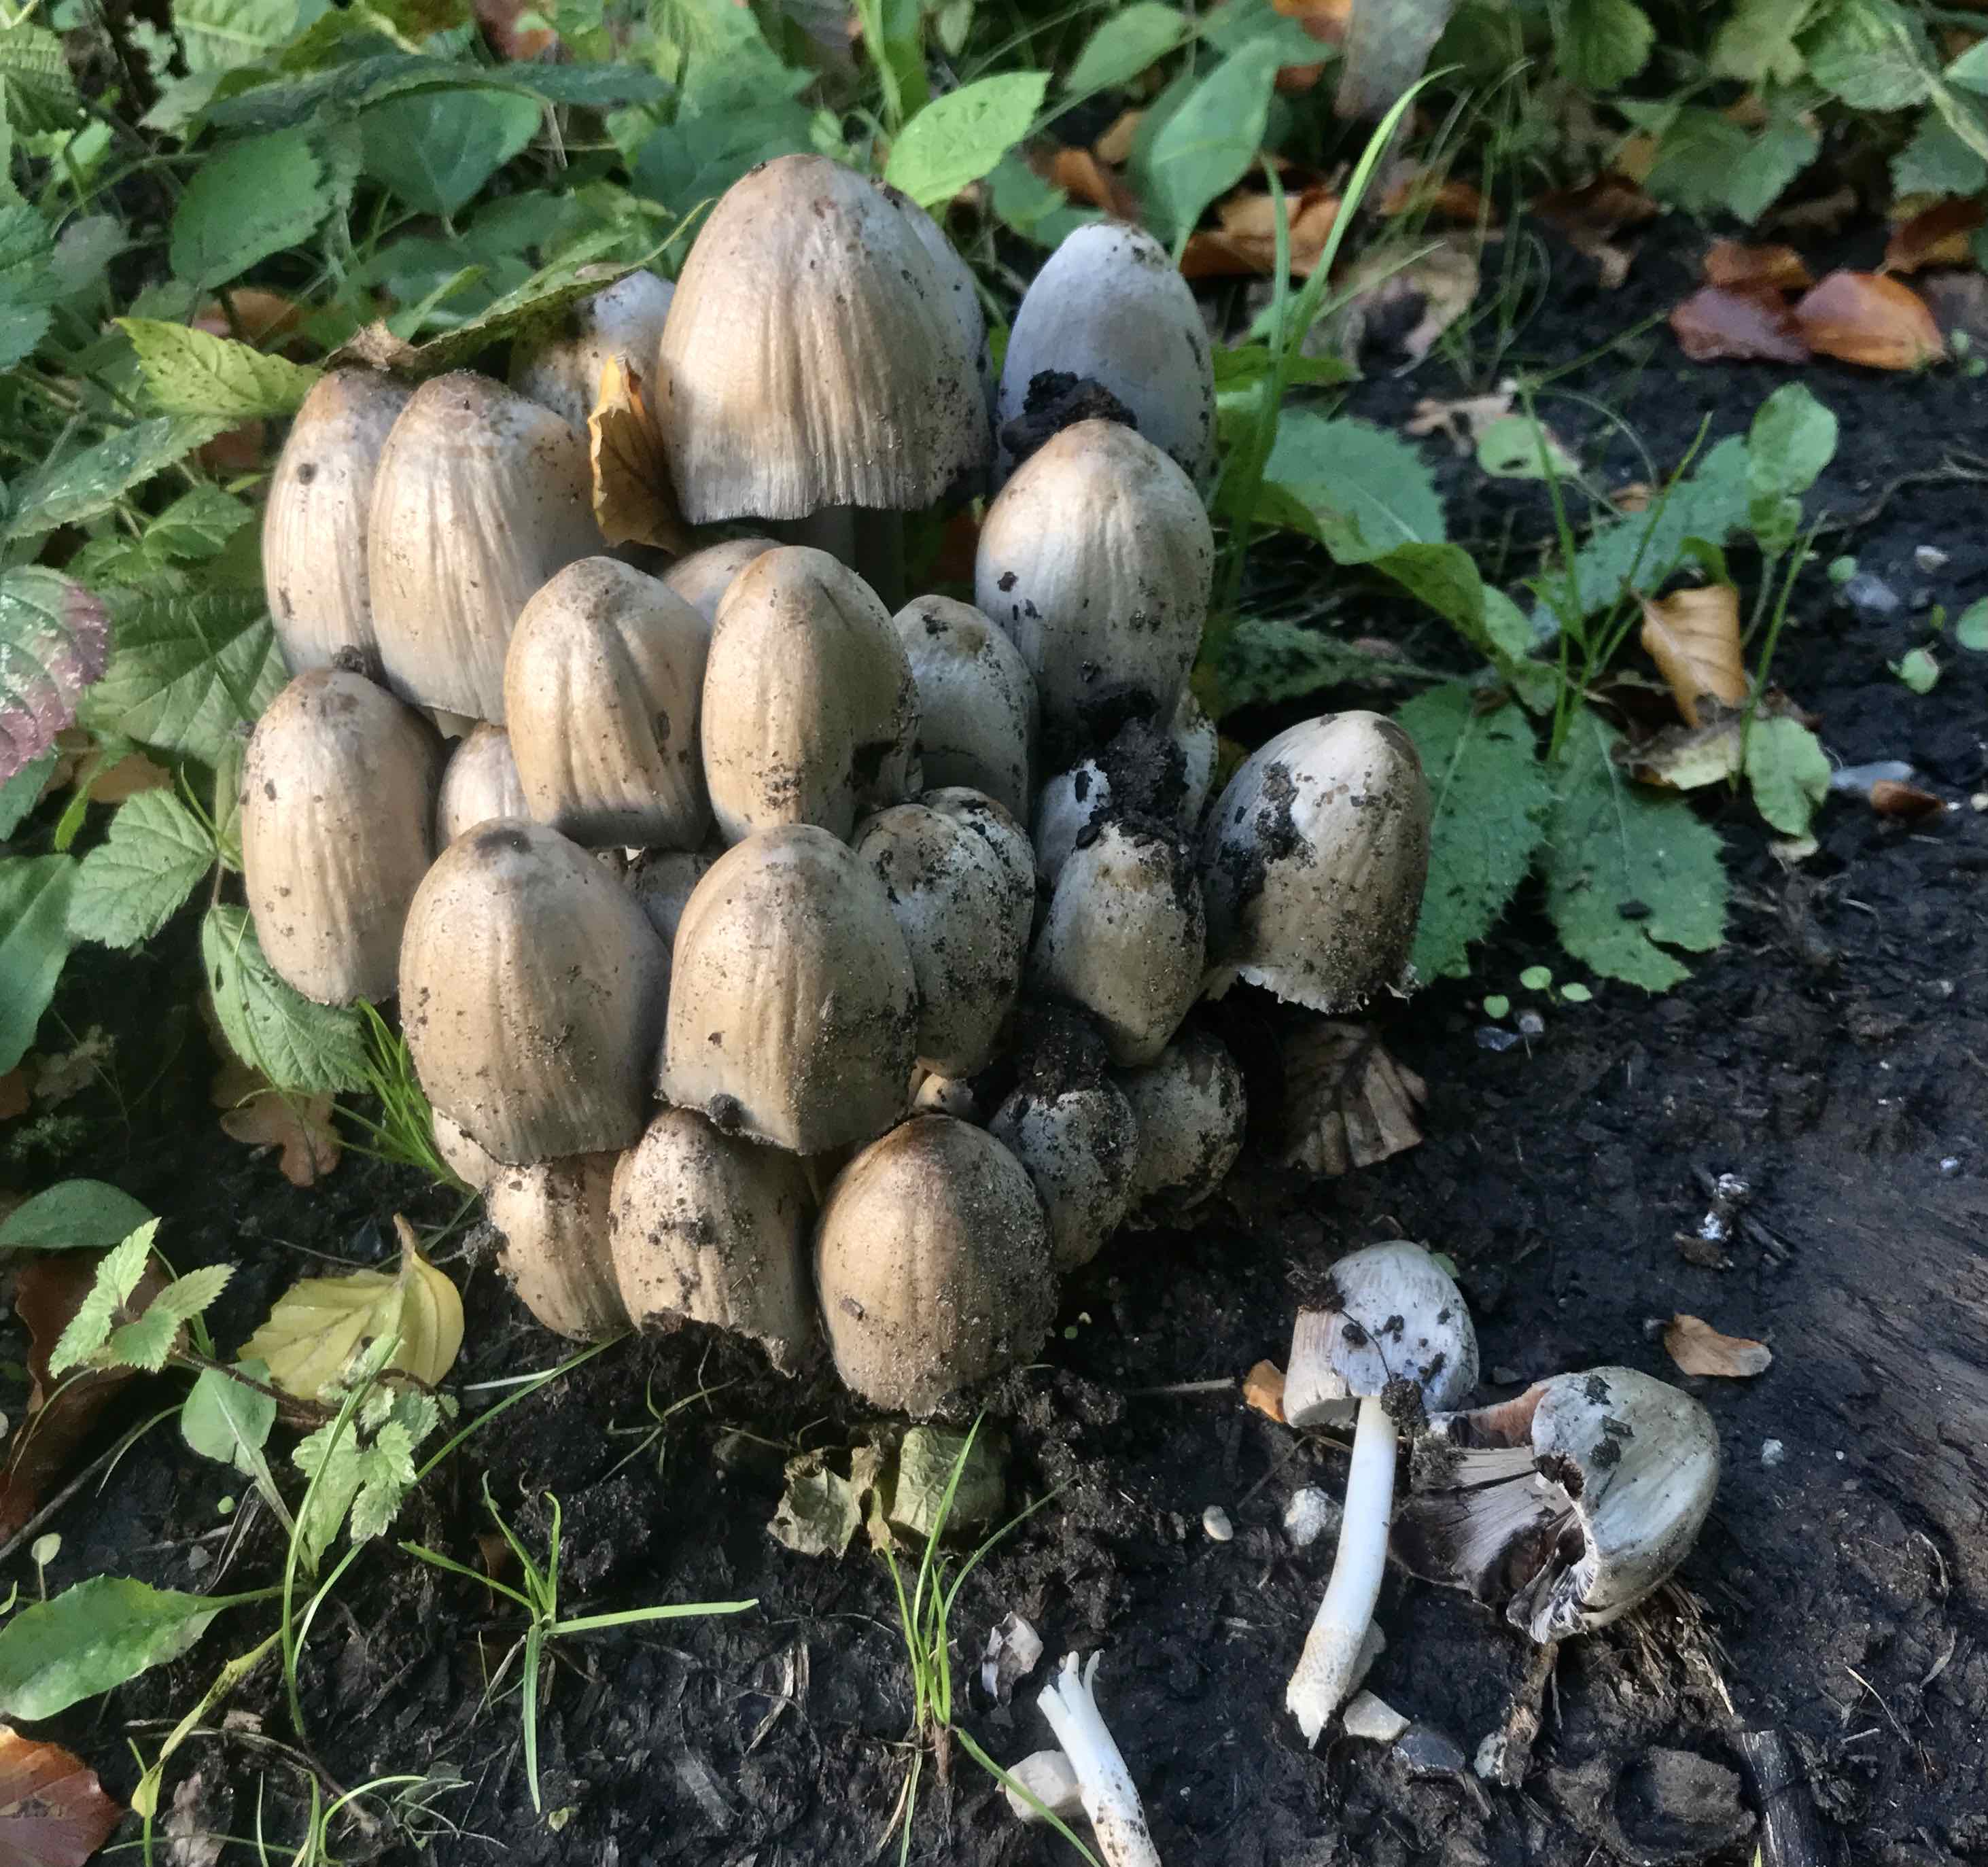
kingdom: Fungi
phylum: Basidiomycota
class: Agaricomycetes
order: Agaricales
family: Psathyrellaceae
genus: Coprinopsis
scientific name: Coprinopsis atramentaria
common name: almindelig blækhat
